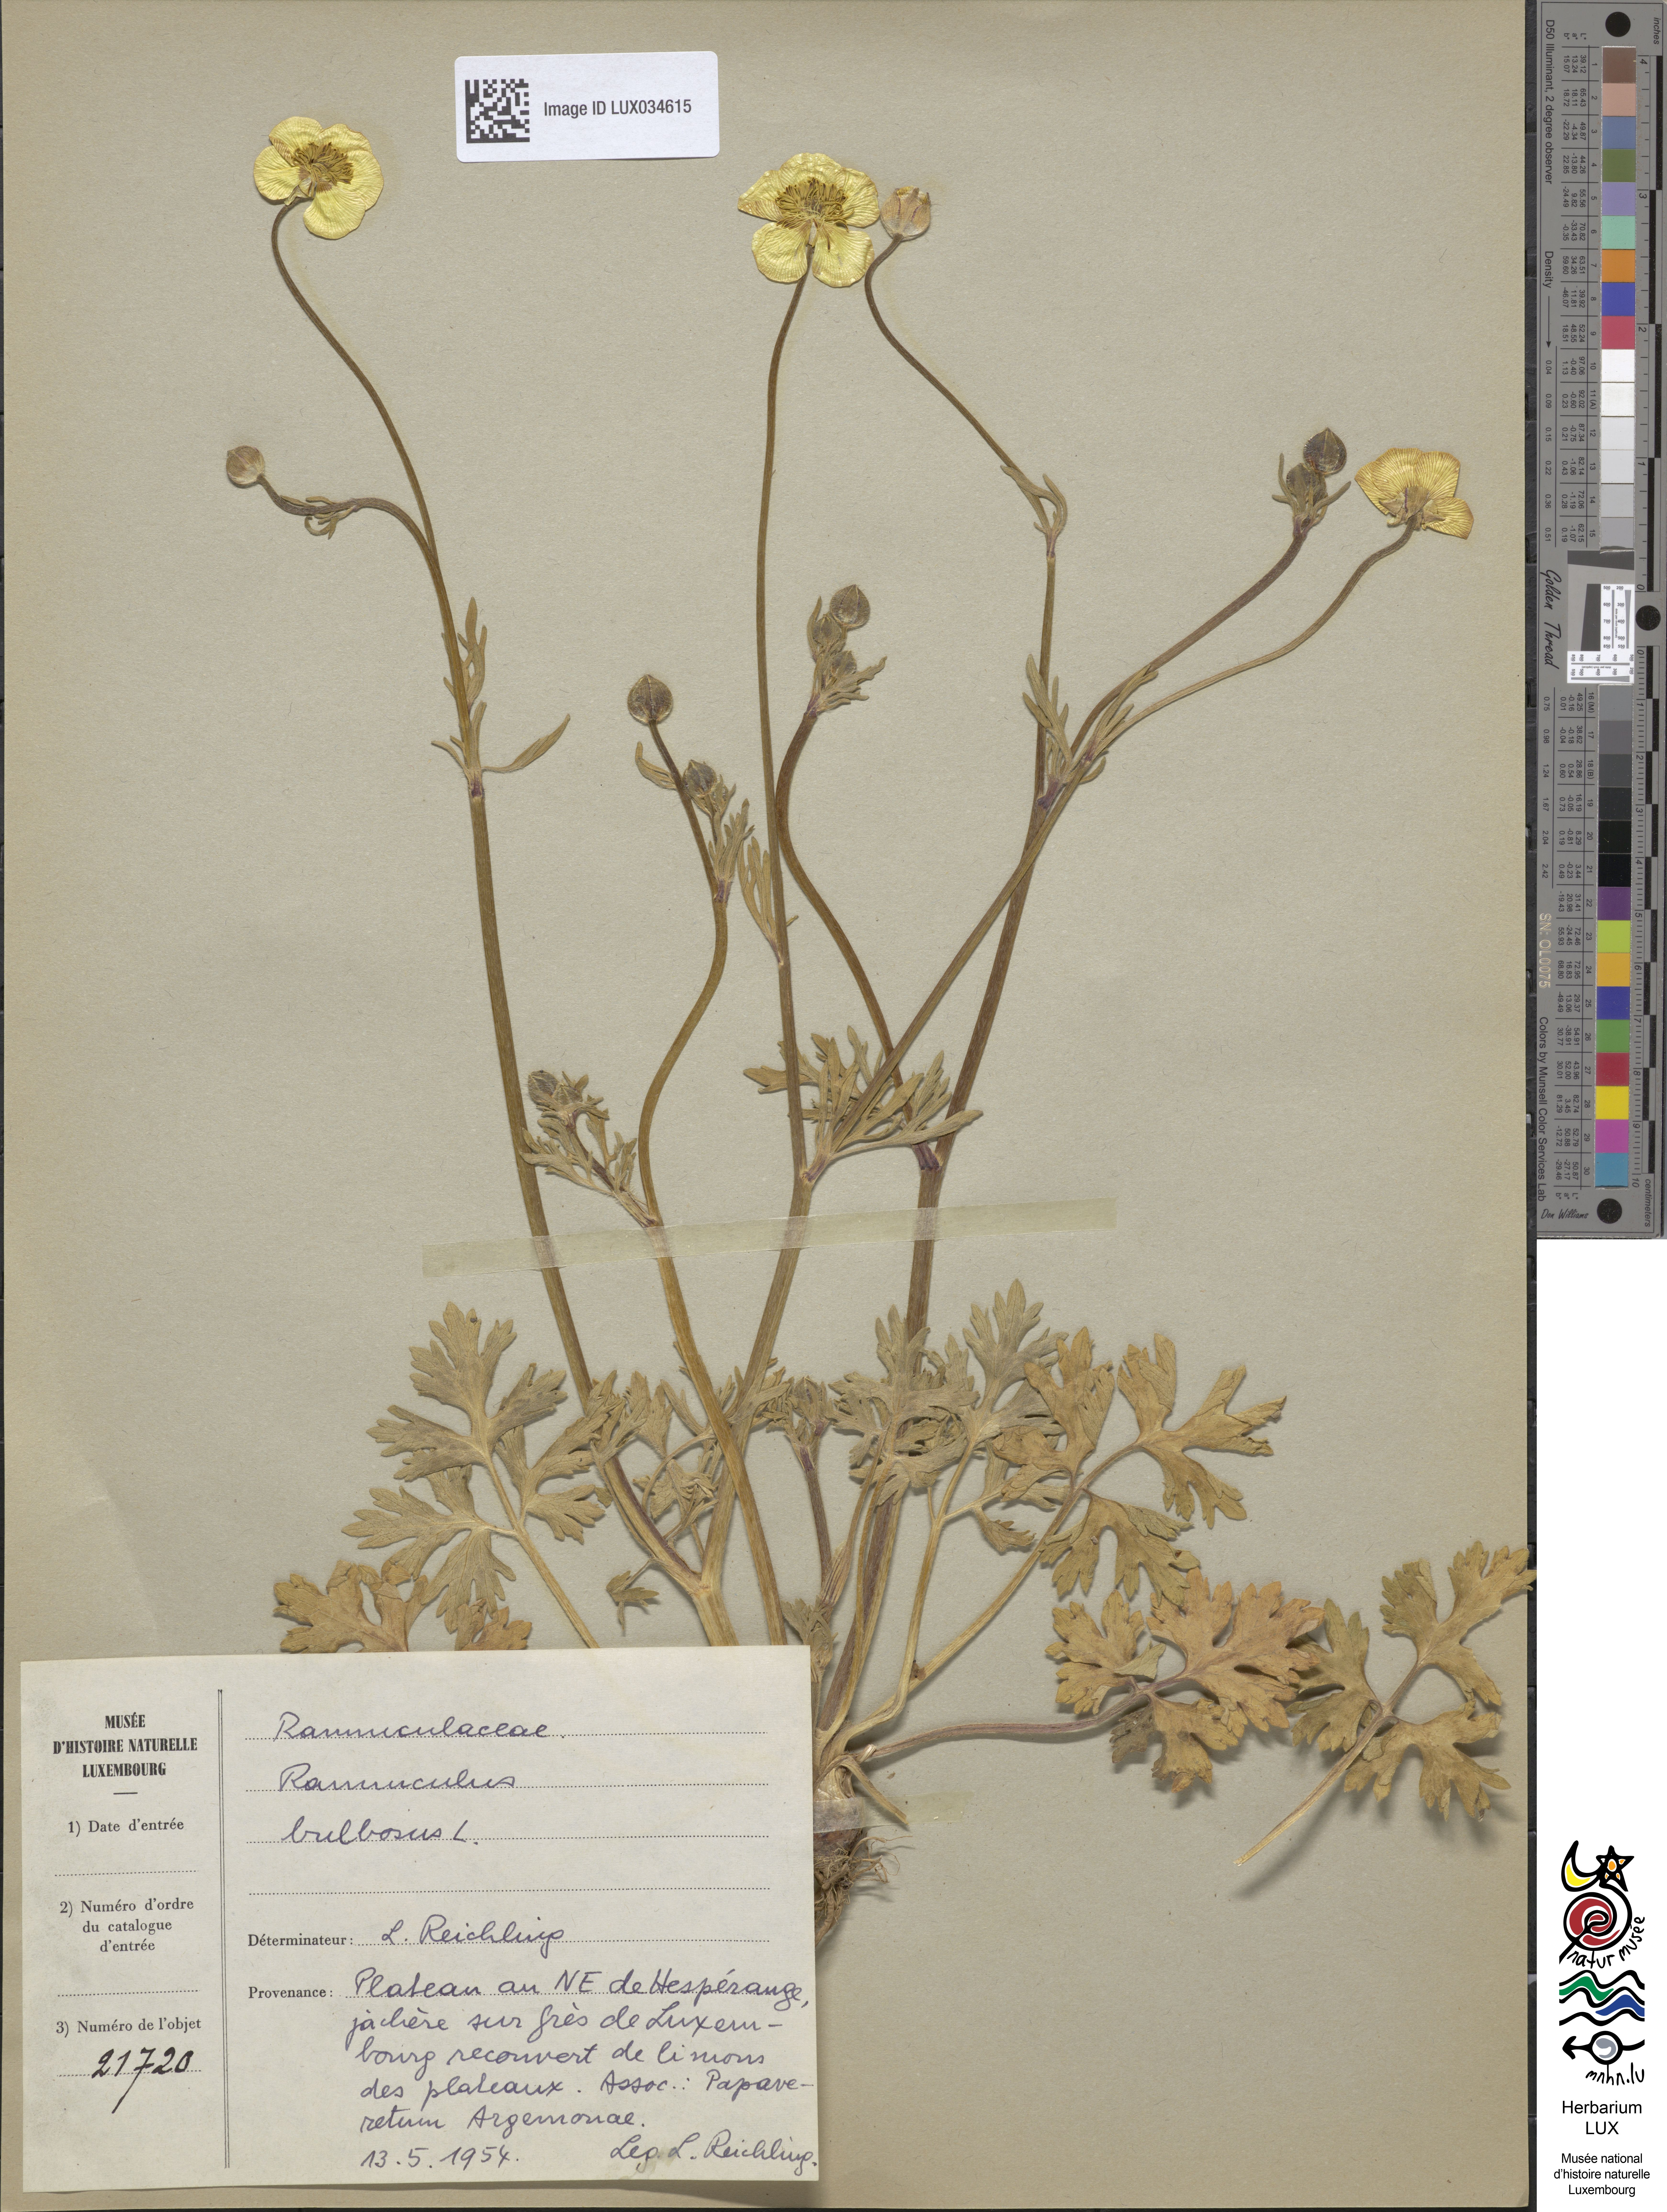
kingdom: Plantae
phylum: Tracheophyta
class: Magnoliopsida
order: Ranunculales
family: Ranunculaceae
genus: Ranunculus
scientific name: Ranunculus bulbosus
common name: Bulbous buttercup
